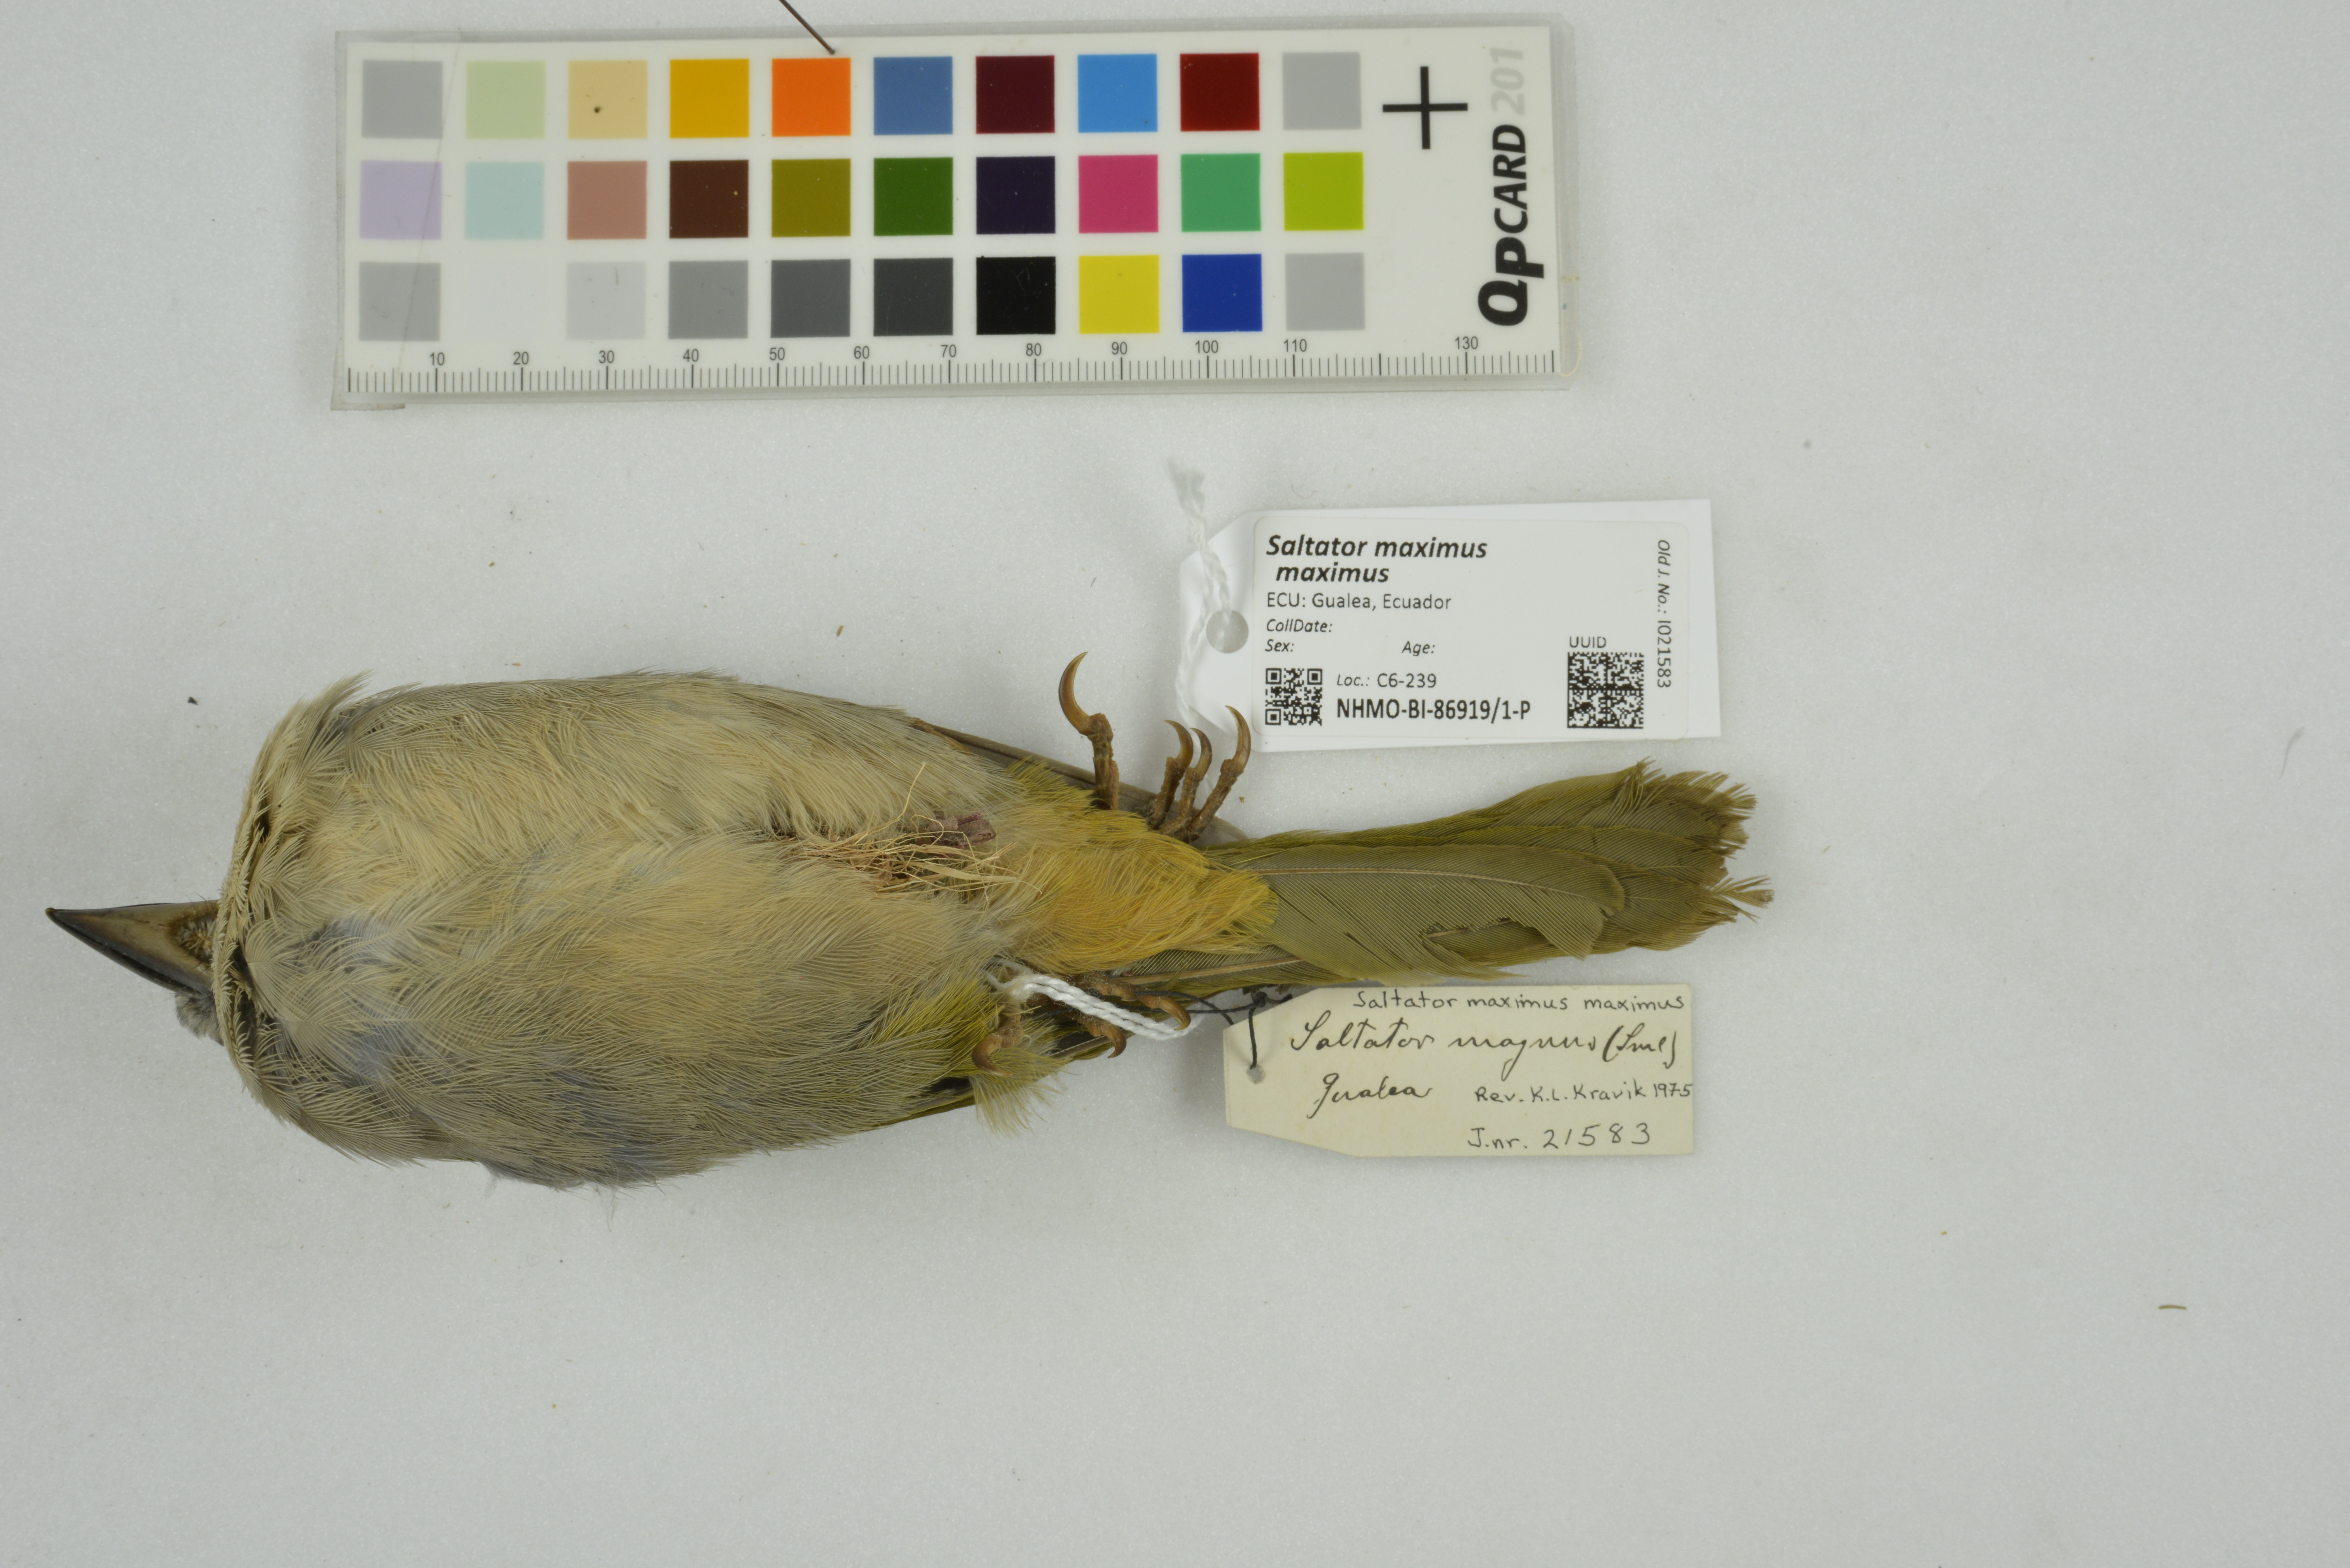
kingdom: Animalia
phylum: Chordata
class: Aves
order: Passeriformes
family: Thraupidae
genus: Saltator
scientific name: Saltator maximus
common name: Buff-throated saltator
